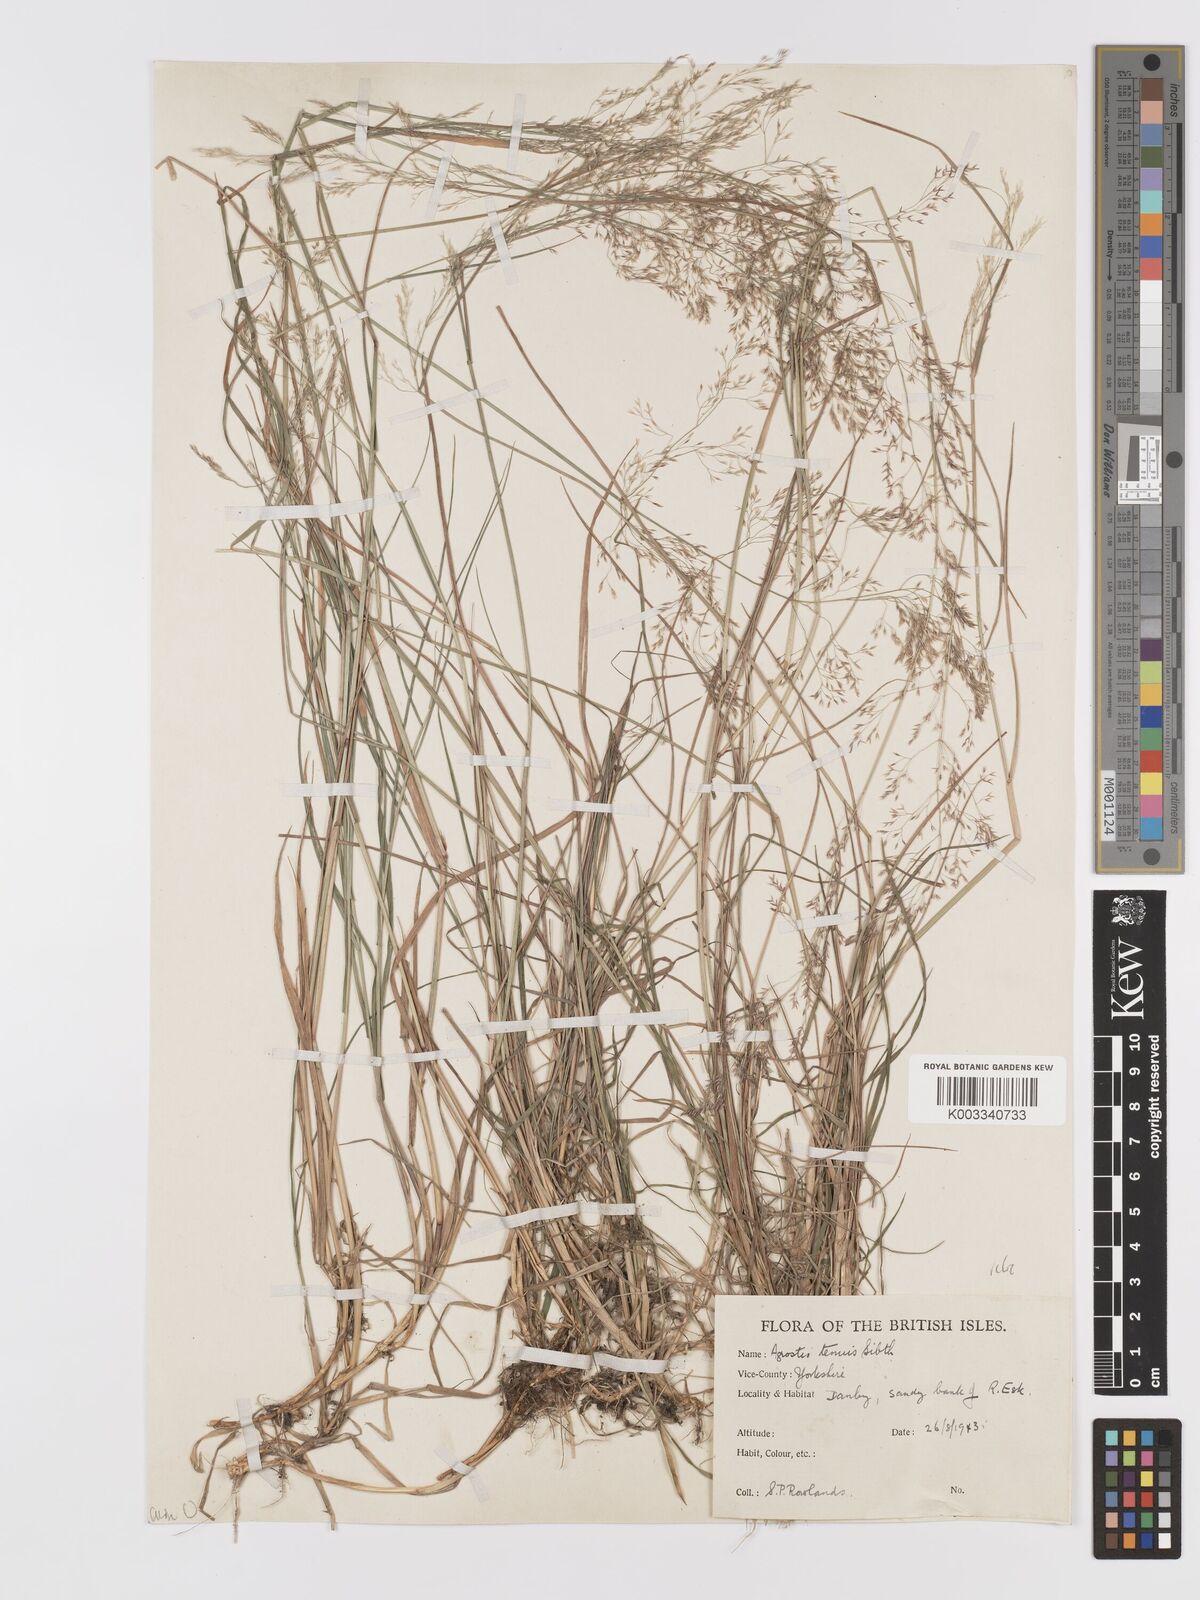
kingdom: Plantae
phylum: Tracheophyta
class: Liliopsida
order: Poales
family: Poaceae
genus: Agrostis
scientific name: Agrostis capillaris
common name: Colonial bentgrass
